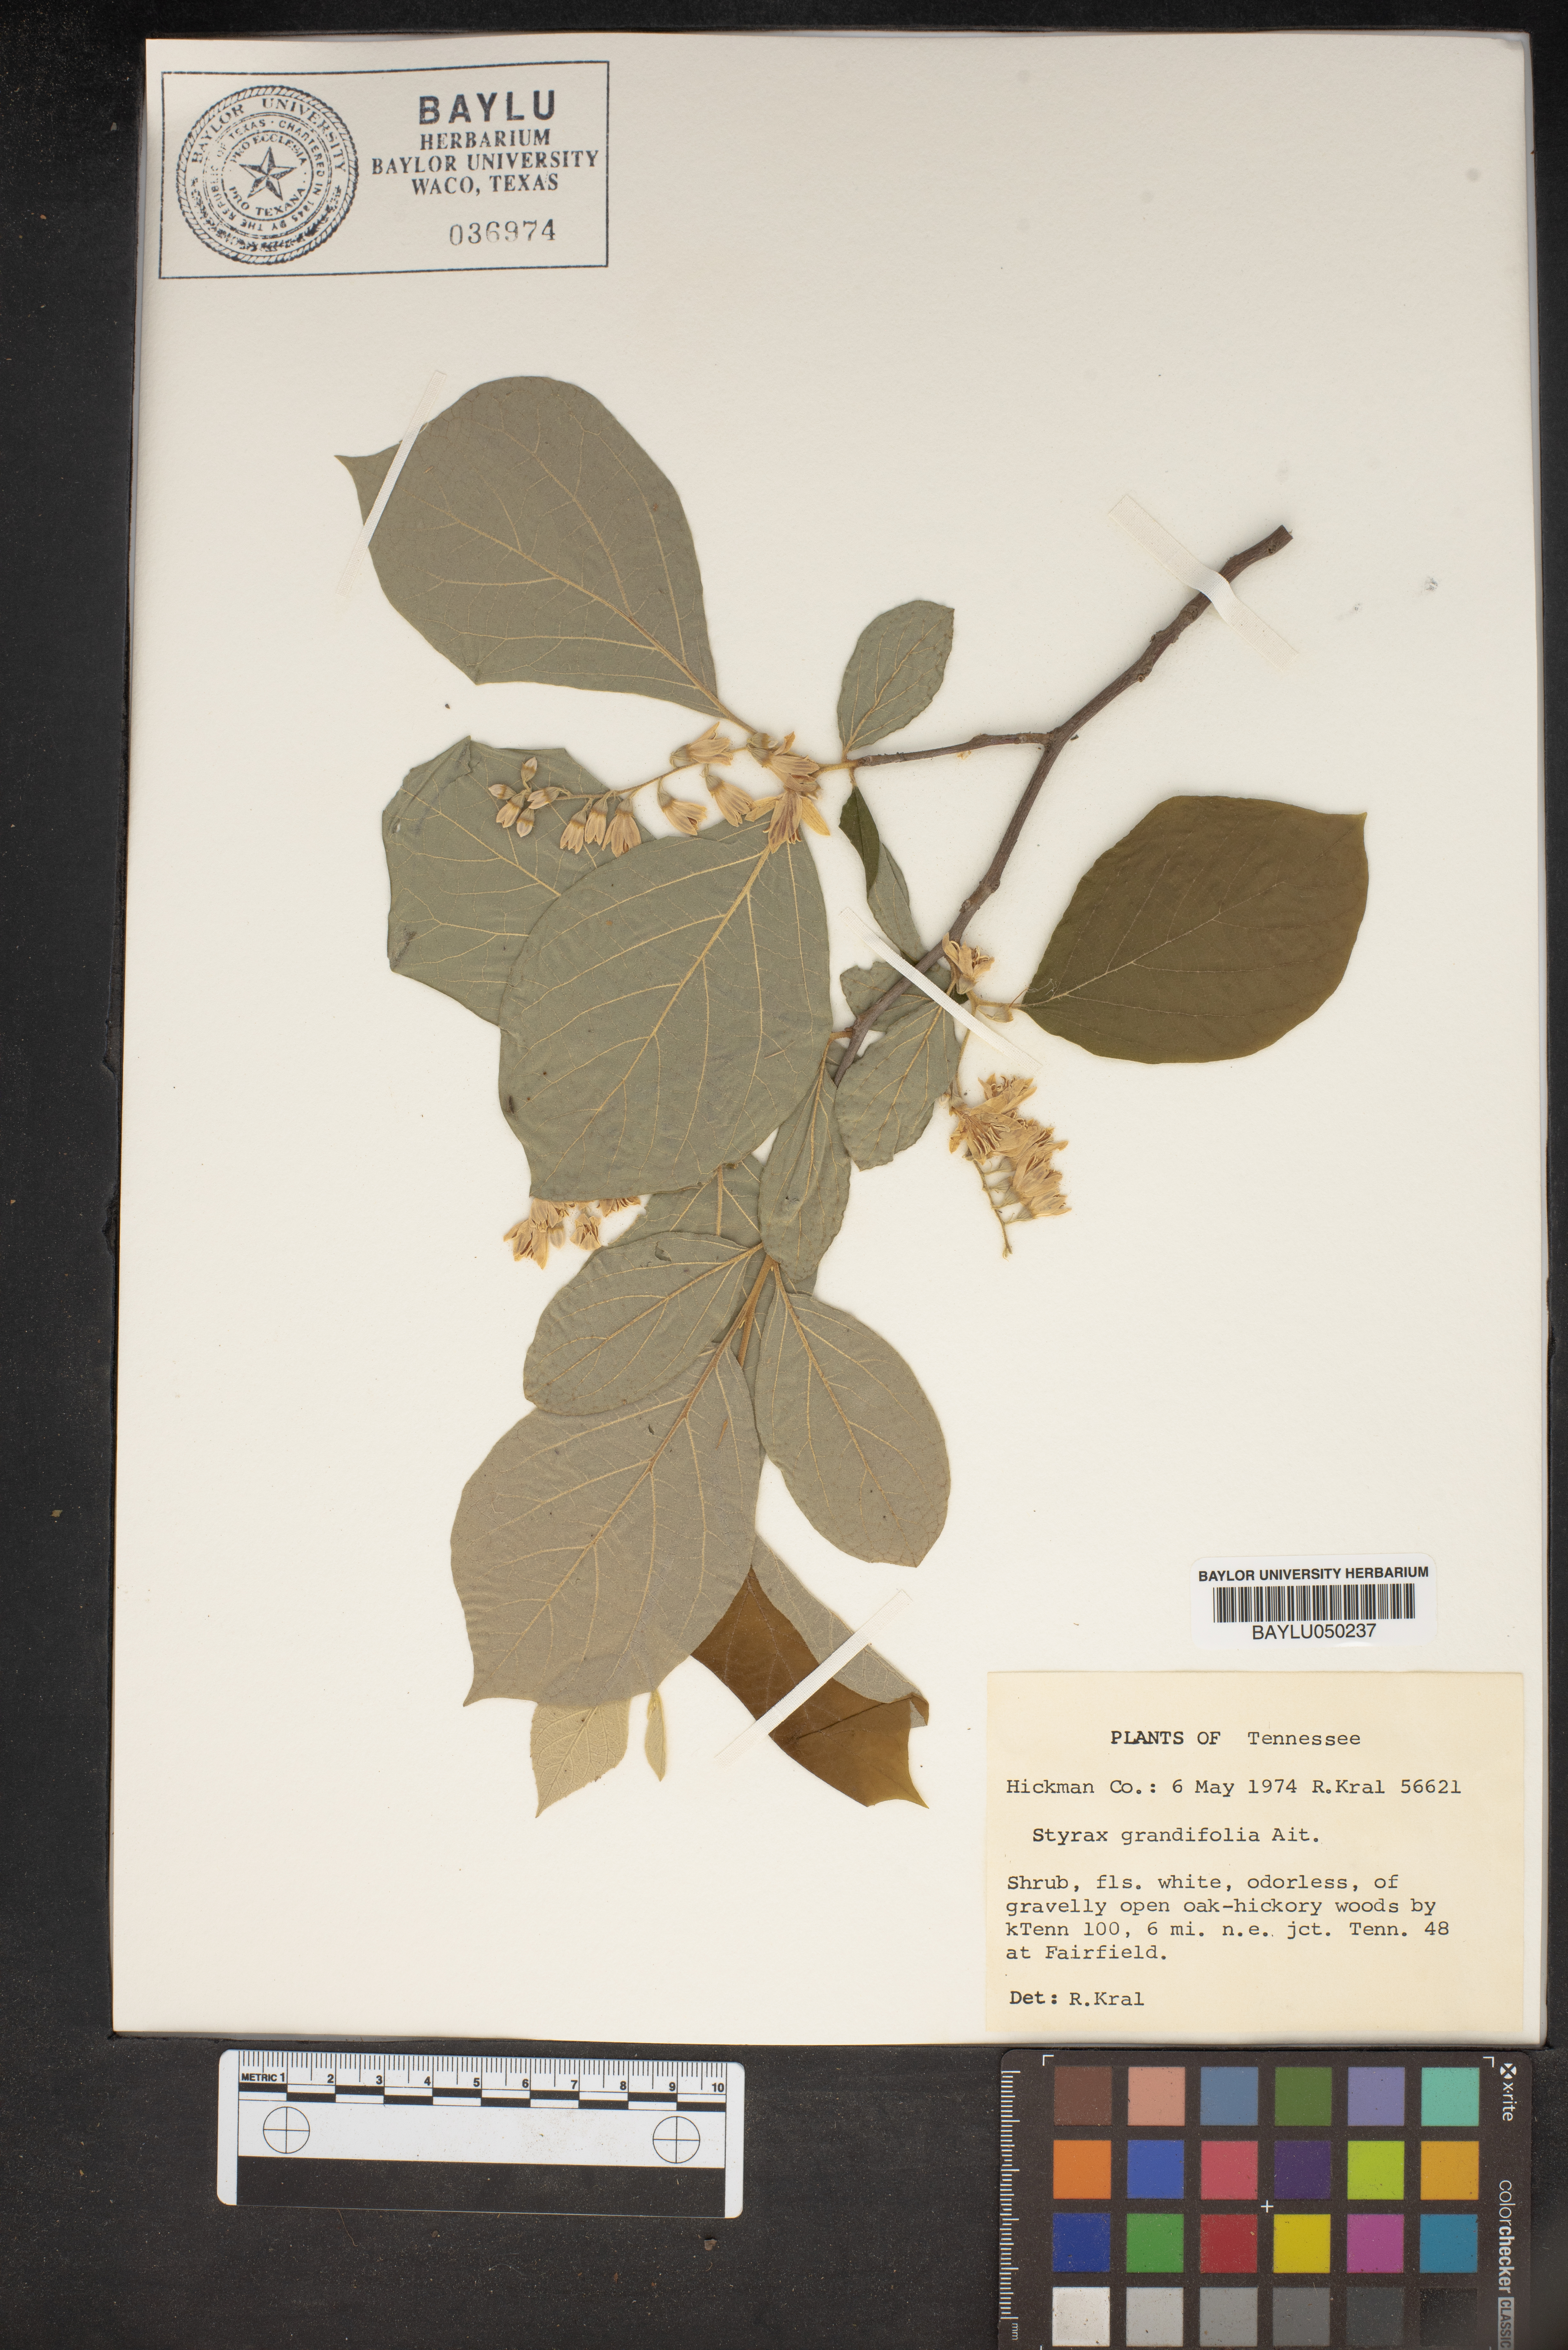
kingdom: Plantae
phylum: Tracheophyta
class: Magnoliopsida
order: Ericales
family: Styracaceae
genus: Styrax
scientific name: Styrax grandifolius
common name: Big-leaf snowbell
